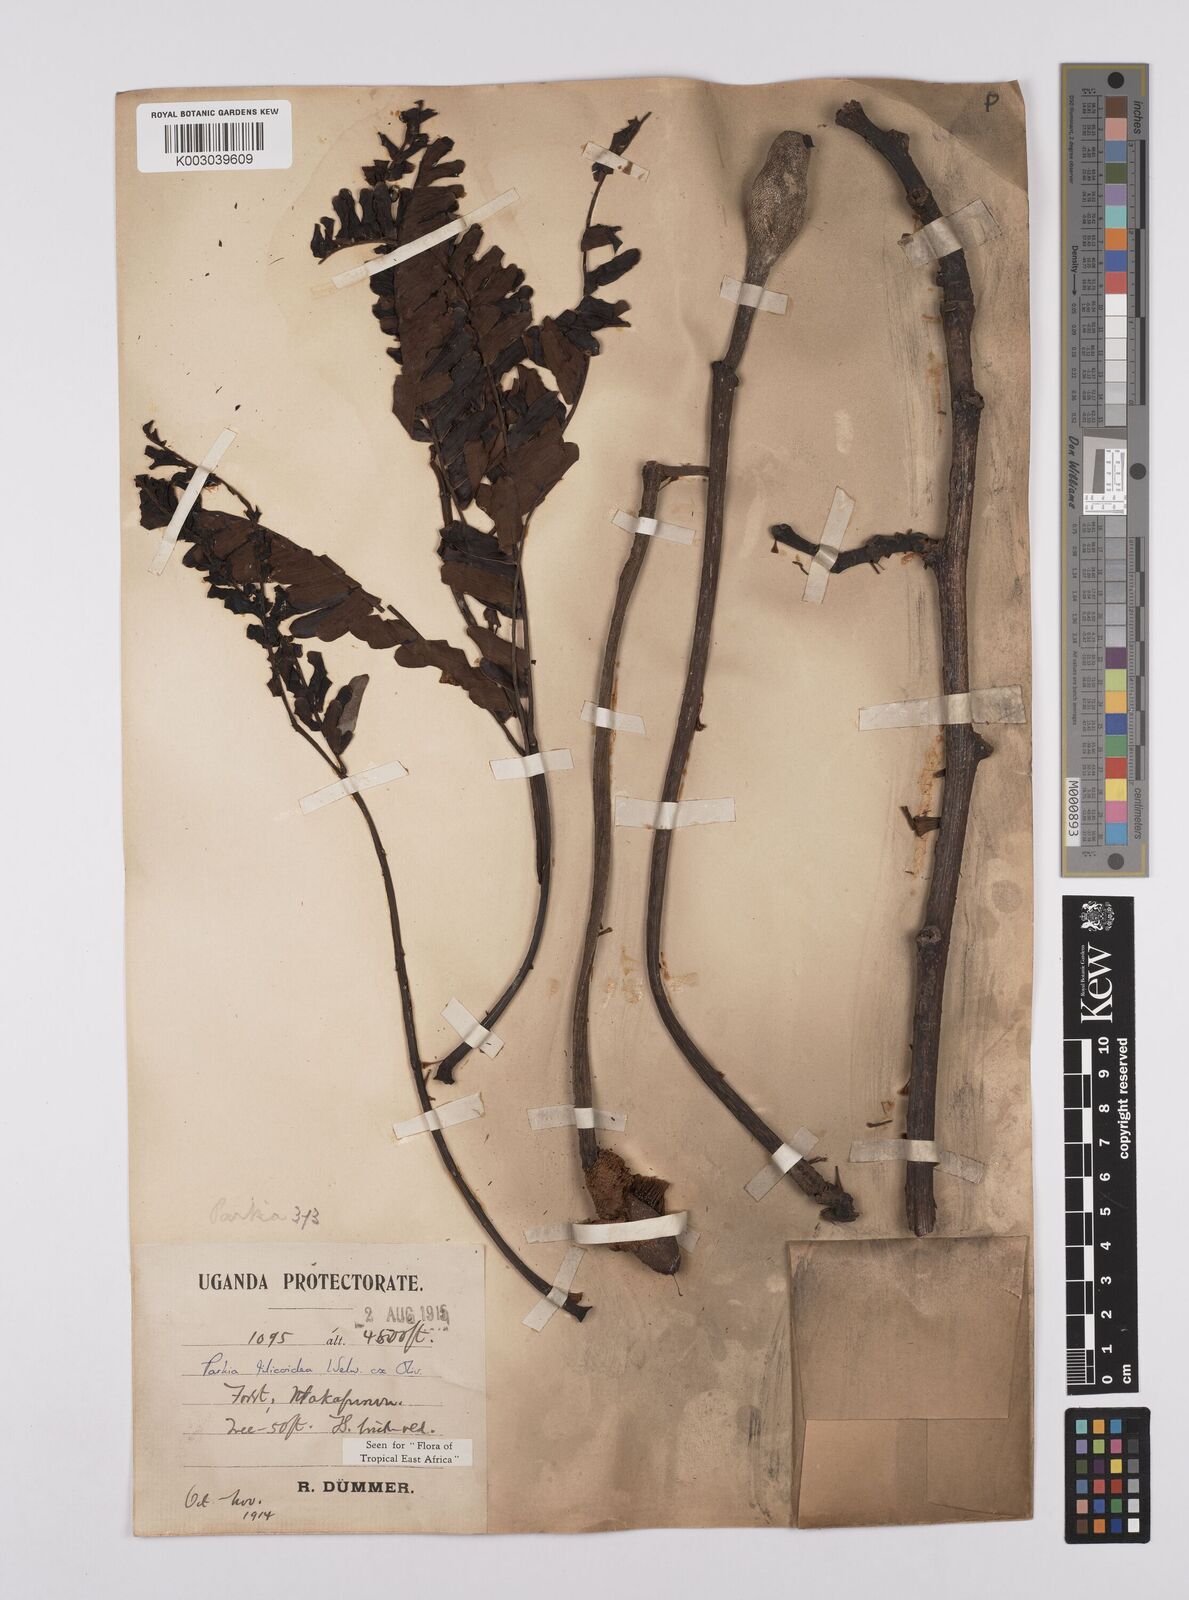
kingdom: Plantae
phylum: Tracheophyta
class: Magnoliopsida
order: Fabales
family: Fabaceae
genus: Parkia
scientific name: Parkia filicoidea
